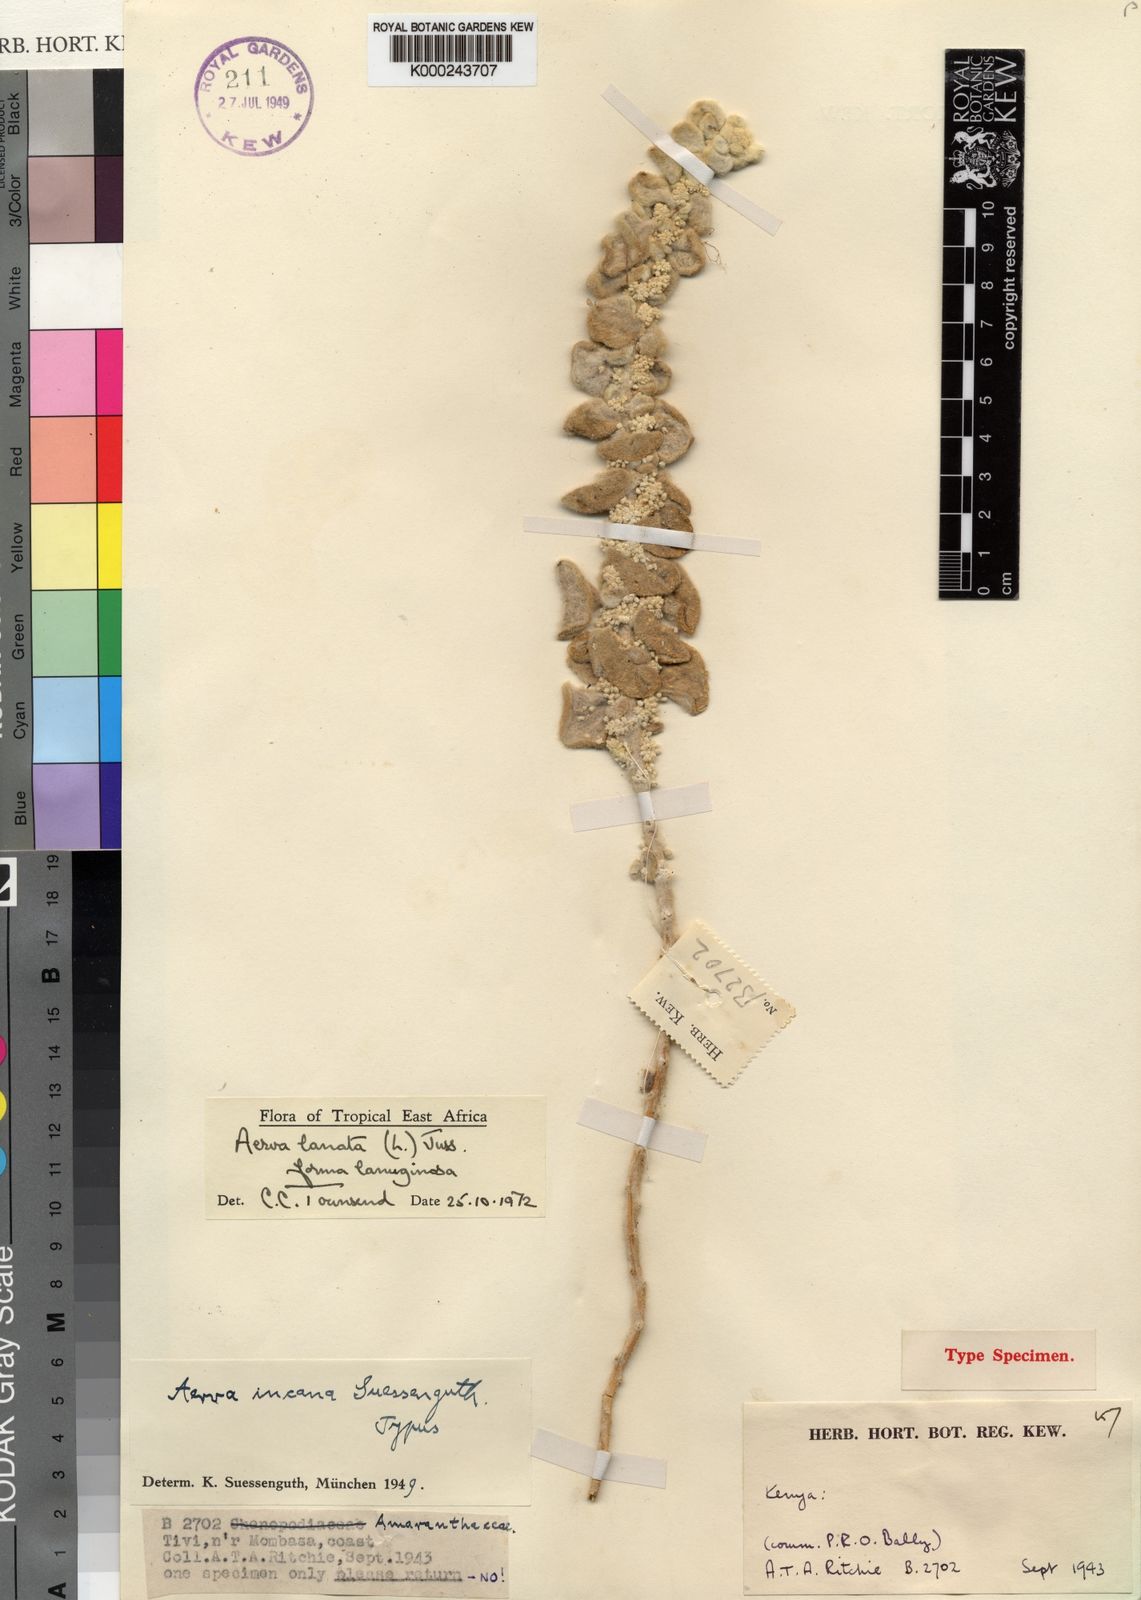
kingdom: Plantae
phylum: Tracheophyta
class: Magnoliopsida
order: Caryophyllales
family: Amaranthaceae
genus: Ouret
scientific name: Ouret lanata
